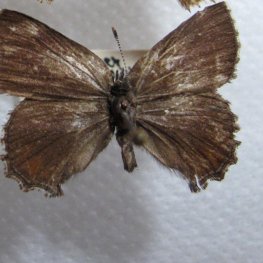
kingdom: Animalia
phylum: Arthropoda
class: Insecta
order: Lepidoptera
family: Lycaenidae
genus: Callophrys
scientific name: Callophrys polios
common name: Hoary Elfin
